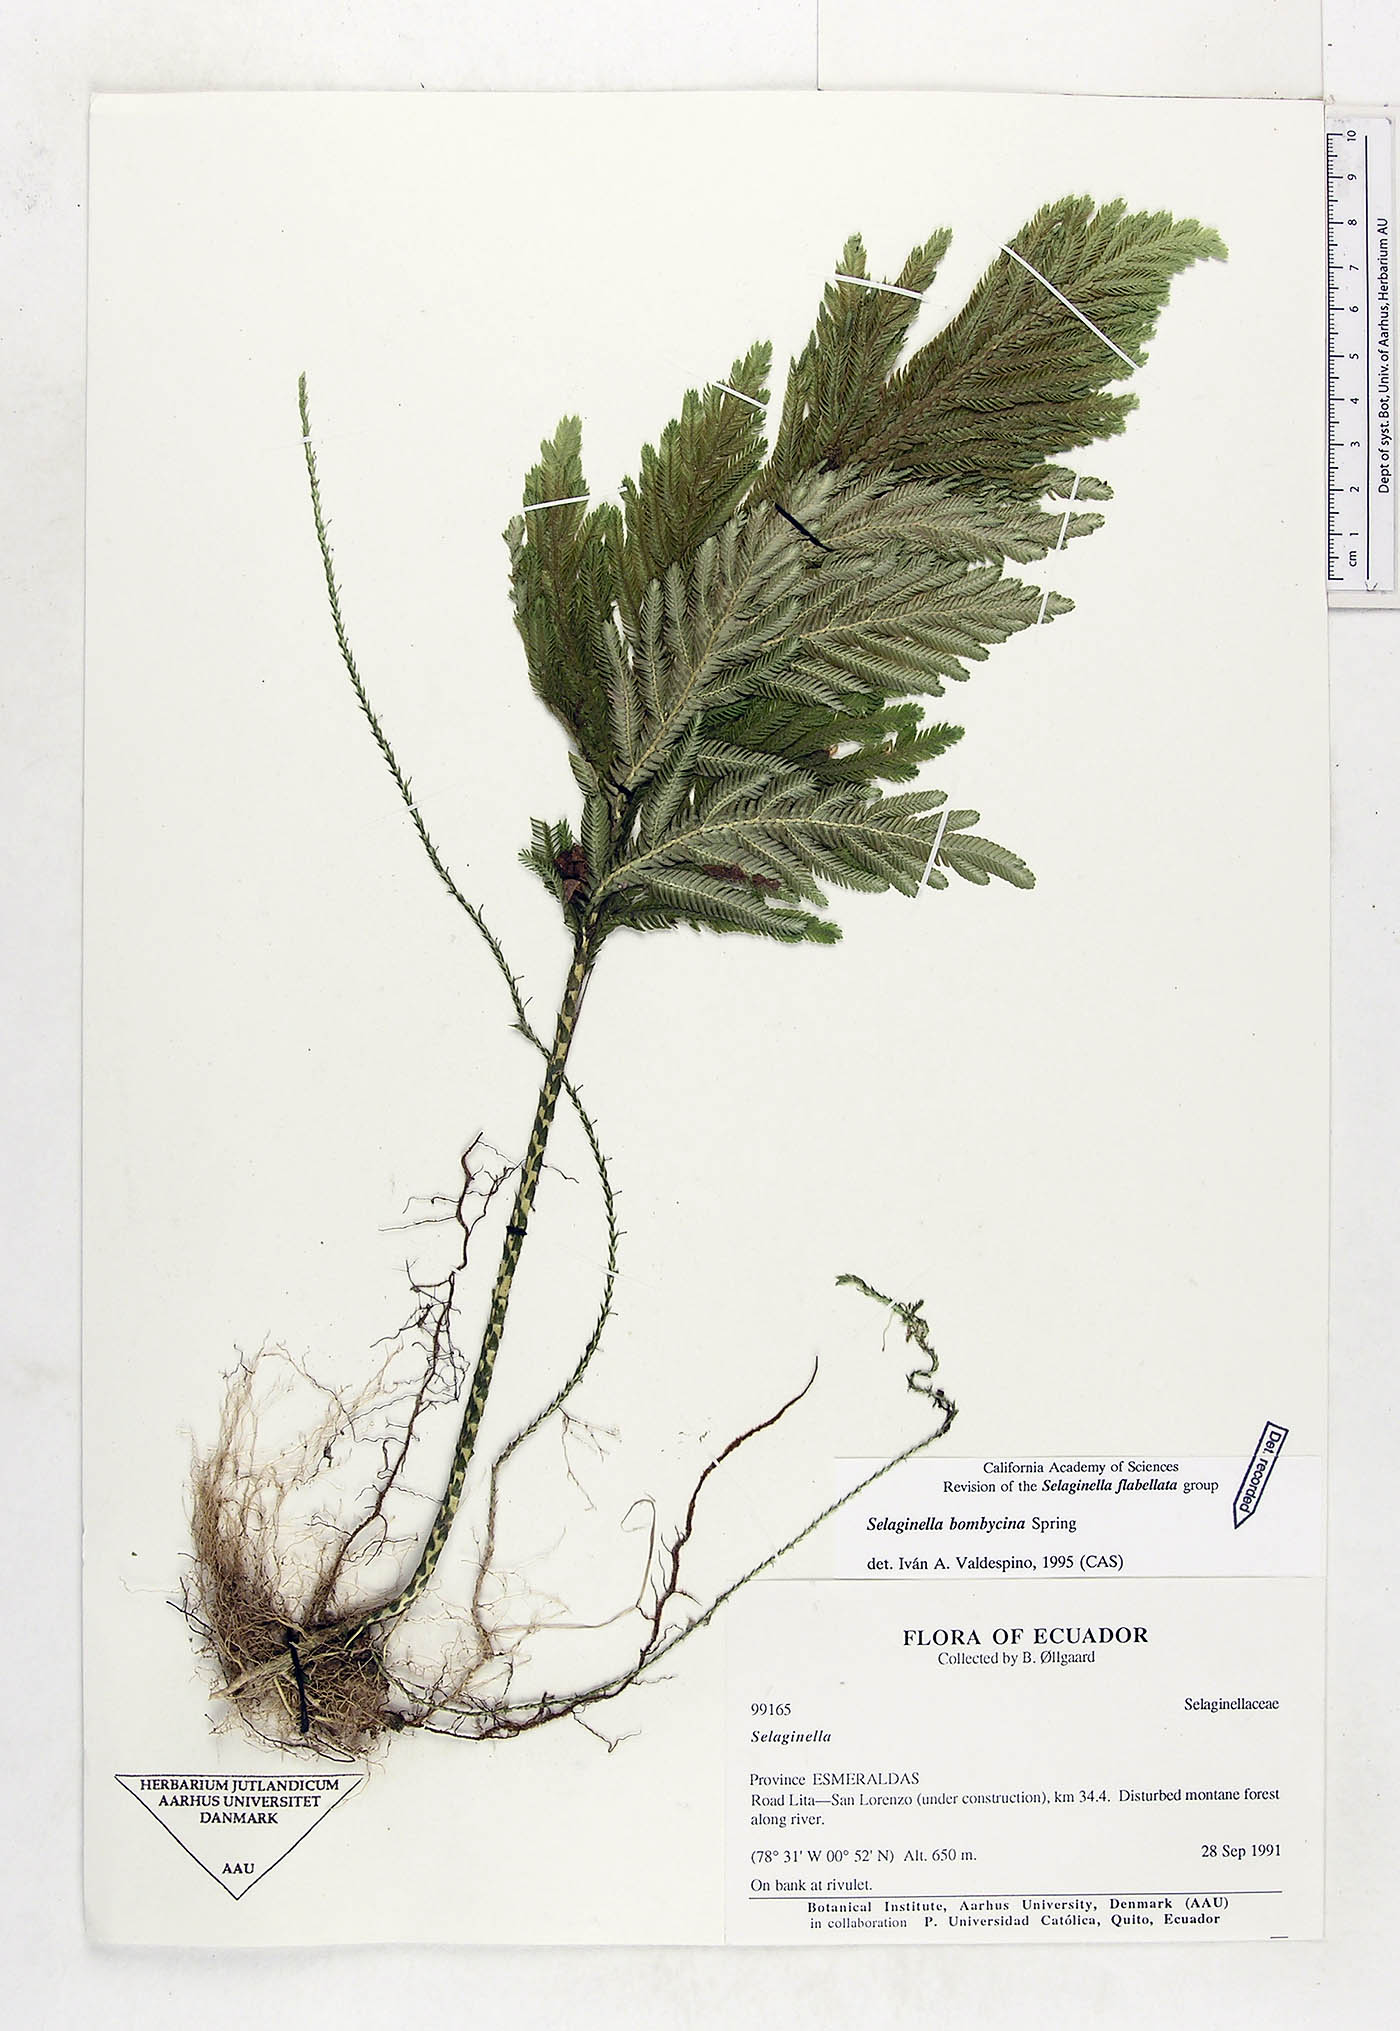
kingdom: Plantae
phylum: Tracheophyta
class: Lycopodiopsida
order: Selaginellales
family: Selaginellaceae
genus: Selaginella
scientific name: Selaginella bombycina
